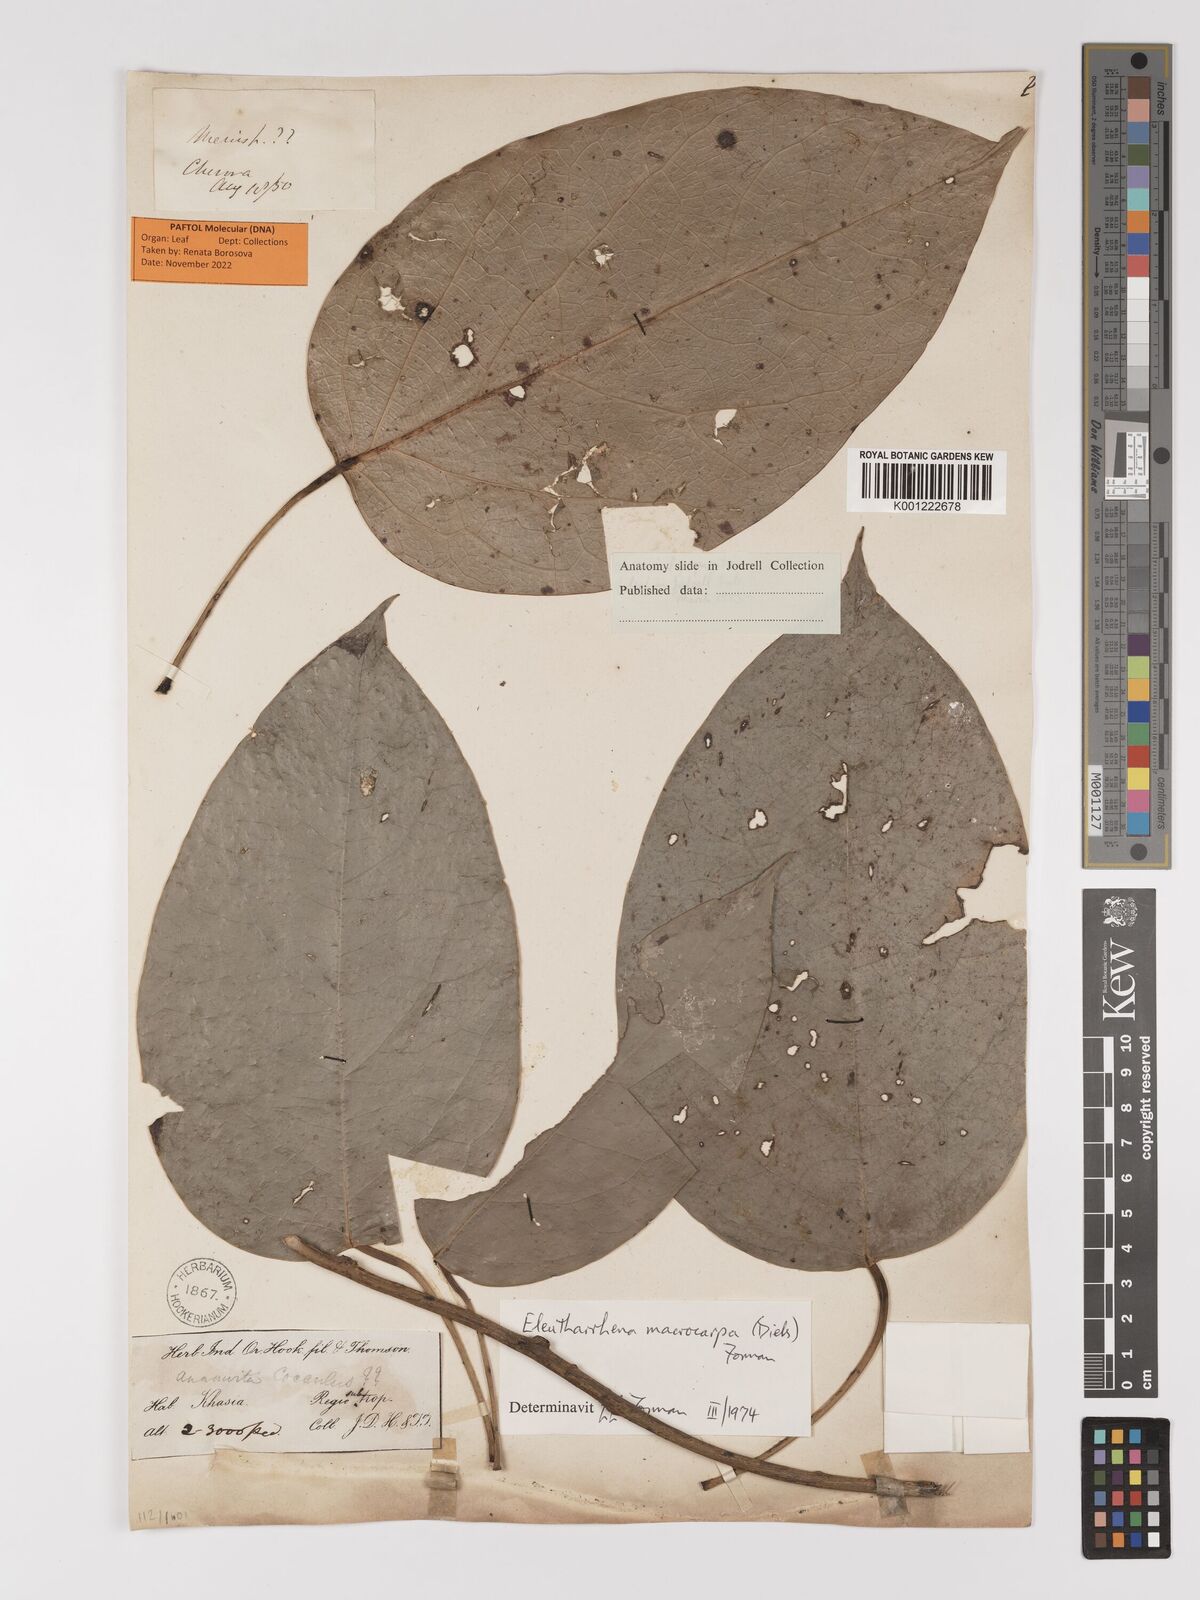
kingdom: Plantae
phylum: Tracheophyta
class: Magnoliopsida
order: Ranunculales
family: Menispermaceae
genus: Eleutharrhena
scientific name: Eleutharrhena macrocarpa
